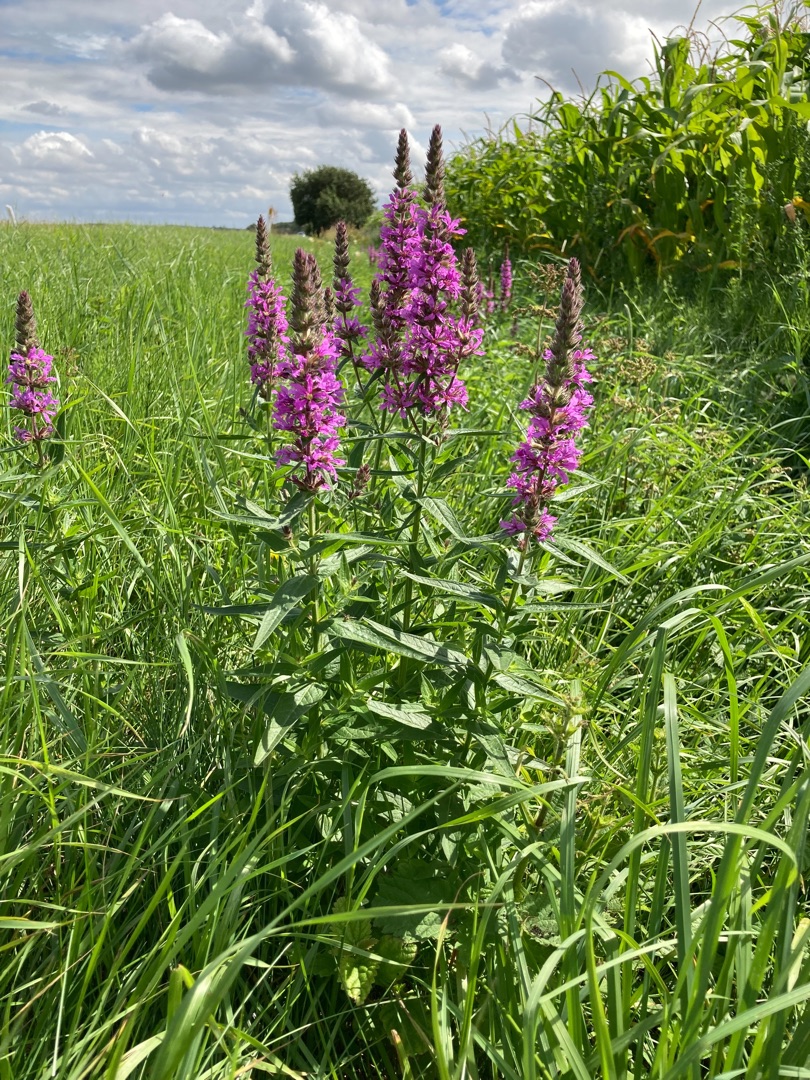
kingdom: Plantae
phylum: Tracheophyta
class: Magnoliopsida
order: Myrtales
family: Lythraceae
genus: Lythrum
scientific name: Lythrum salicaria
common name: Kattehale
